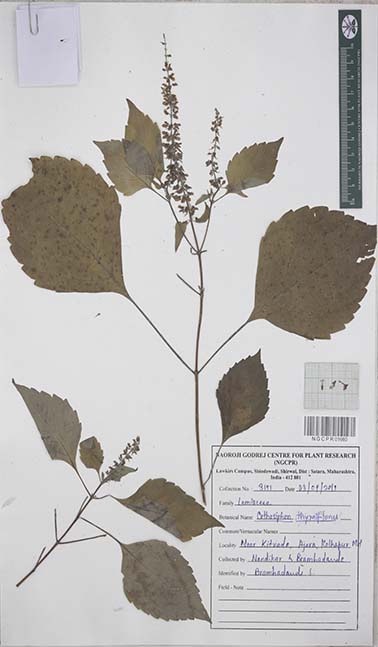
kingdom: Plantae
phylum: Tracheophyta
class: Magnoliopsida
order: Lamiales
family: Lamiaceae
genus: Orthosiphon
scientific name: Orthosiphon thymiflorus
